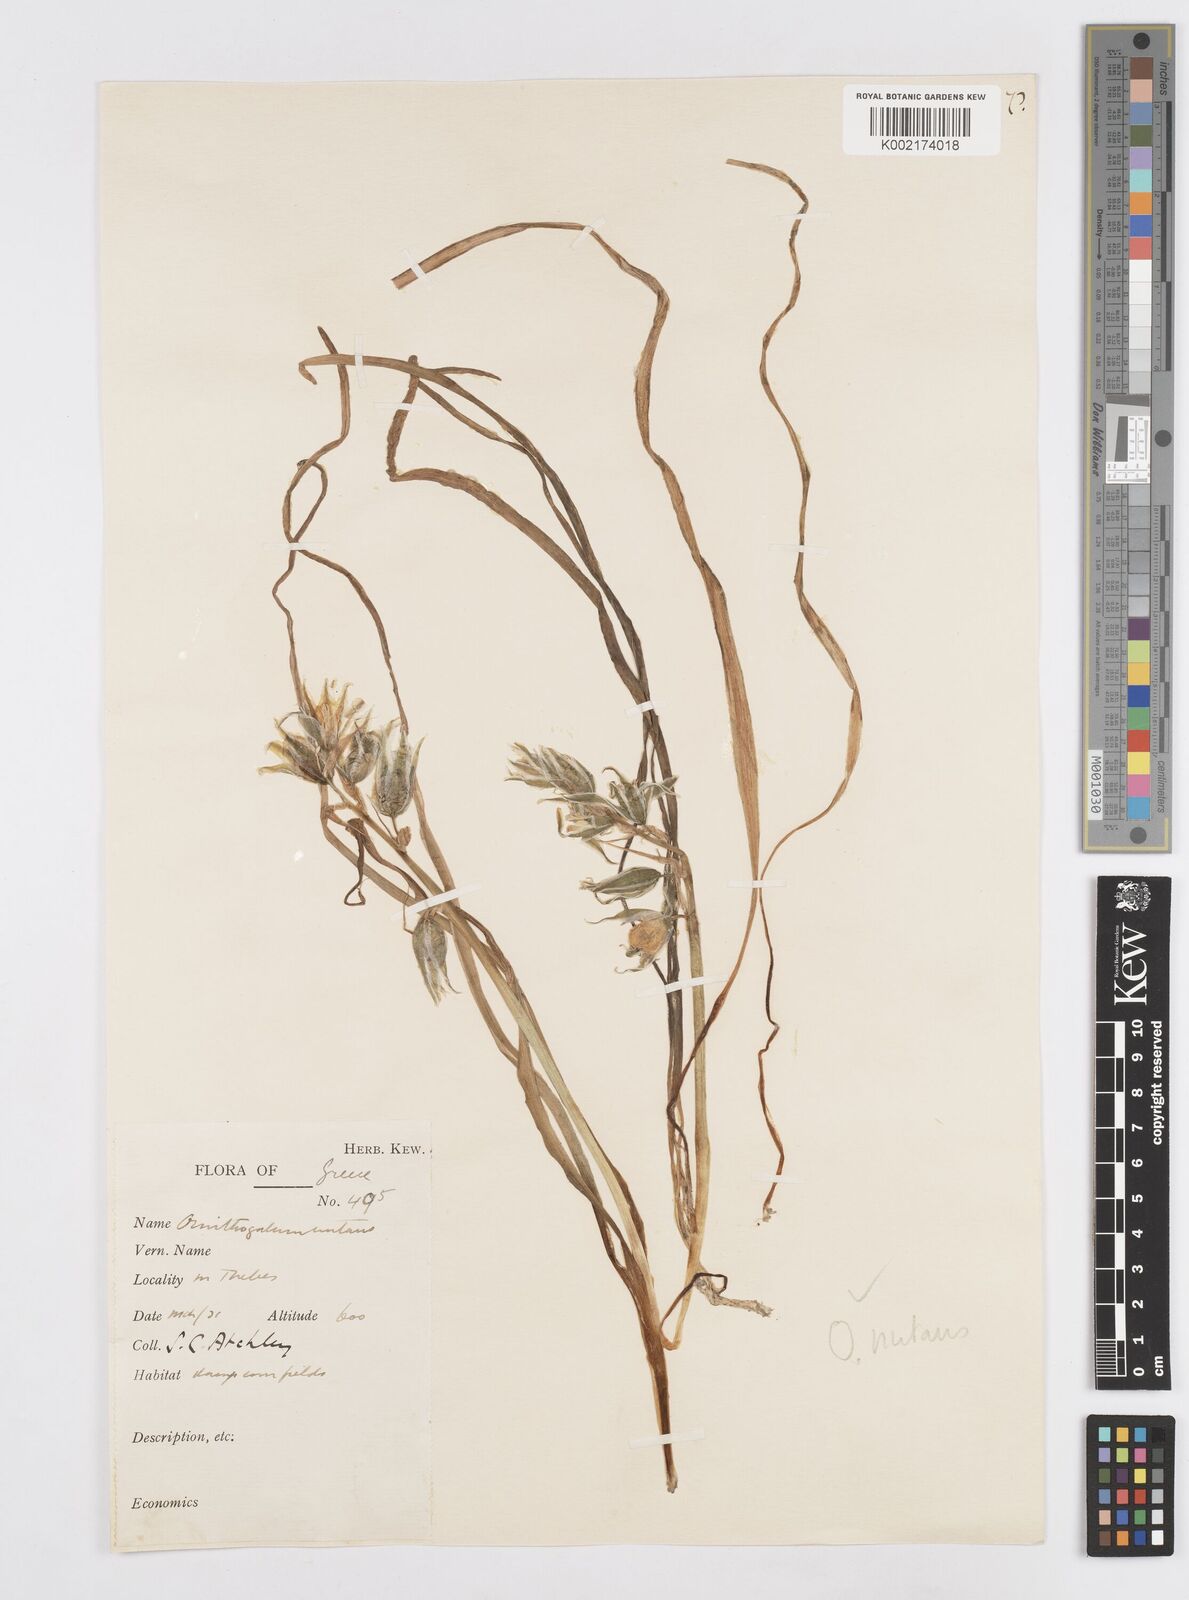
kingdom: Plantae
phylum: Tracheophyta
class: Liliopsida
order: Asparagales
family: Asparagaceae
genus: Ornithogalum
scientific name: Ornithogalum nutans
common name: Drooping star-of-bethlehem
